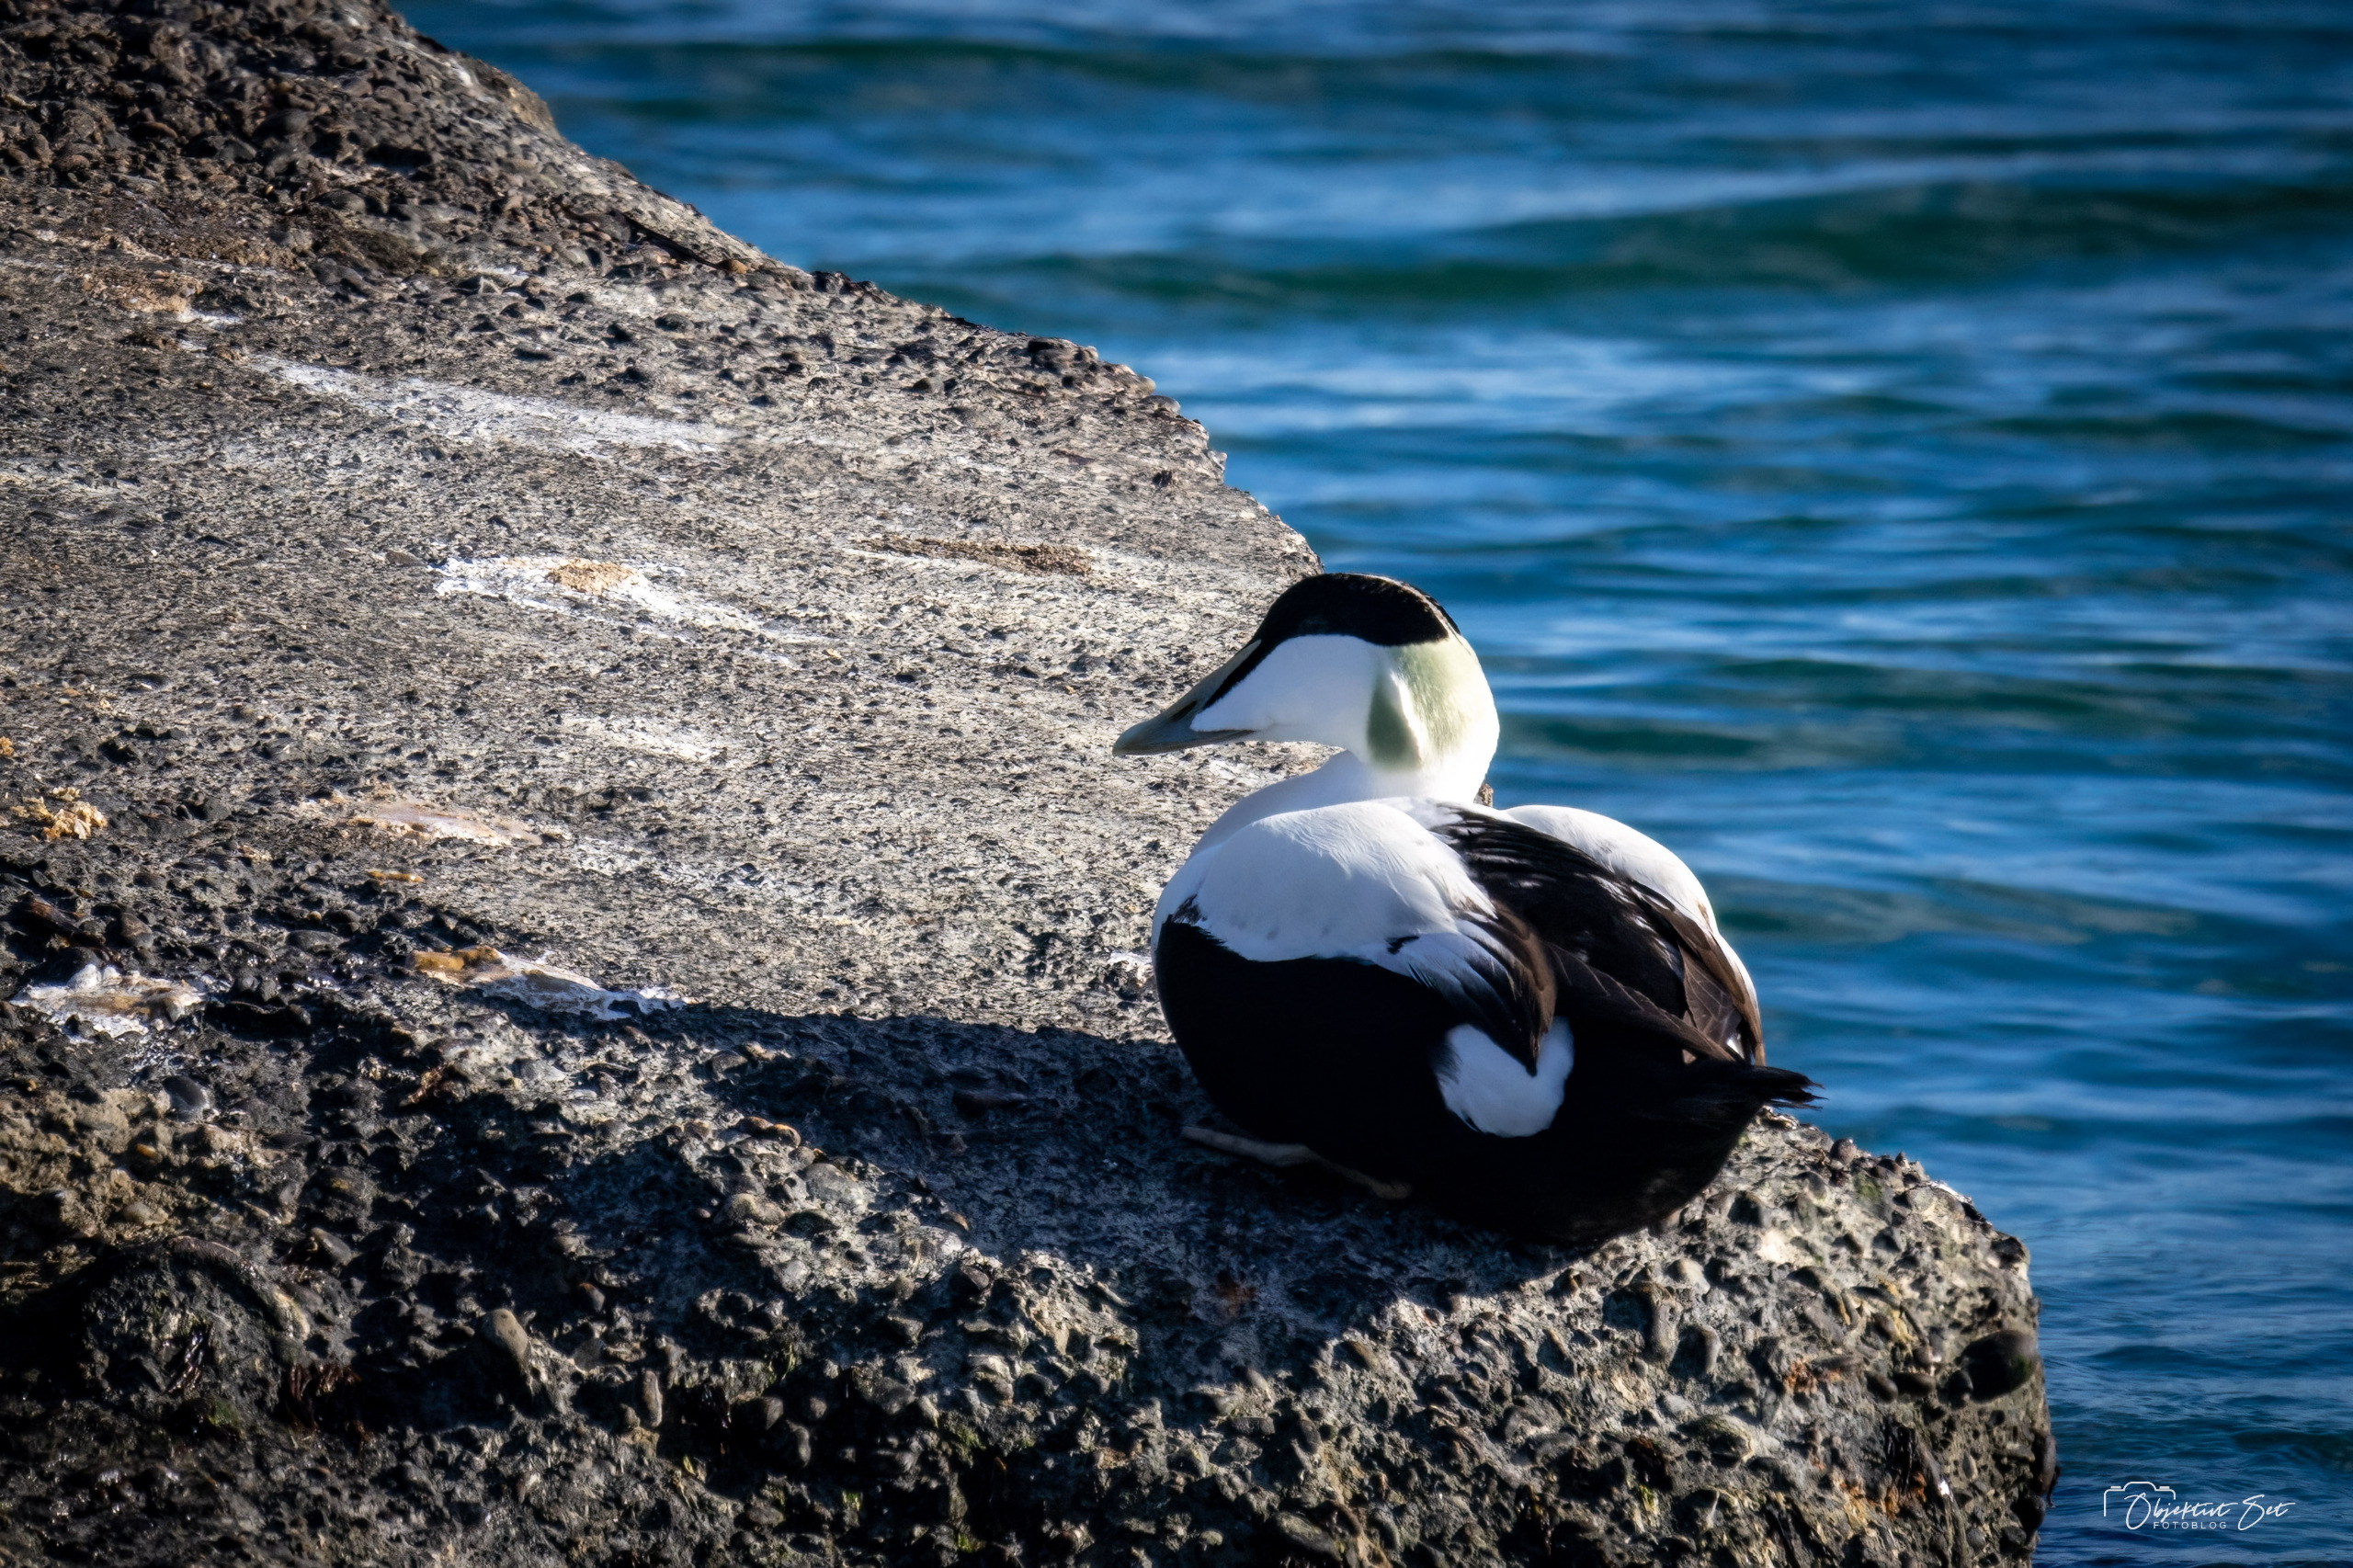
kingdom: Animalia
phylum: Chordata
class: Aves
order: Anseriformes
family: Anatidae
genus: Somateria
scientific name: Somateria mollissima
